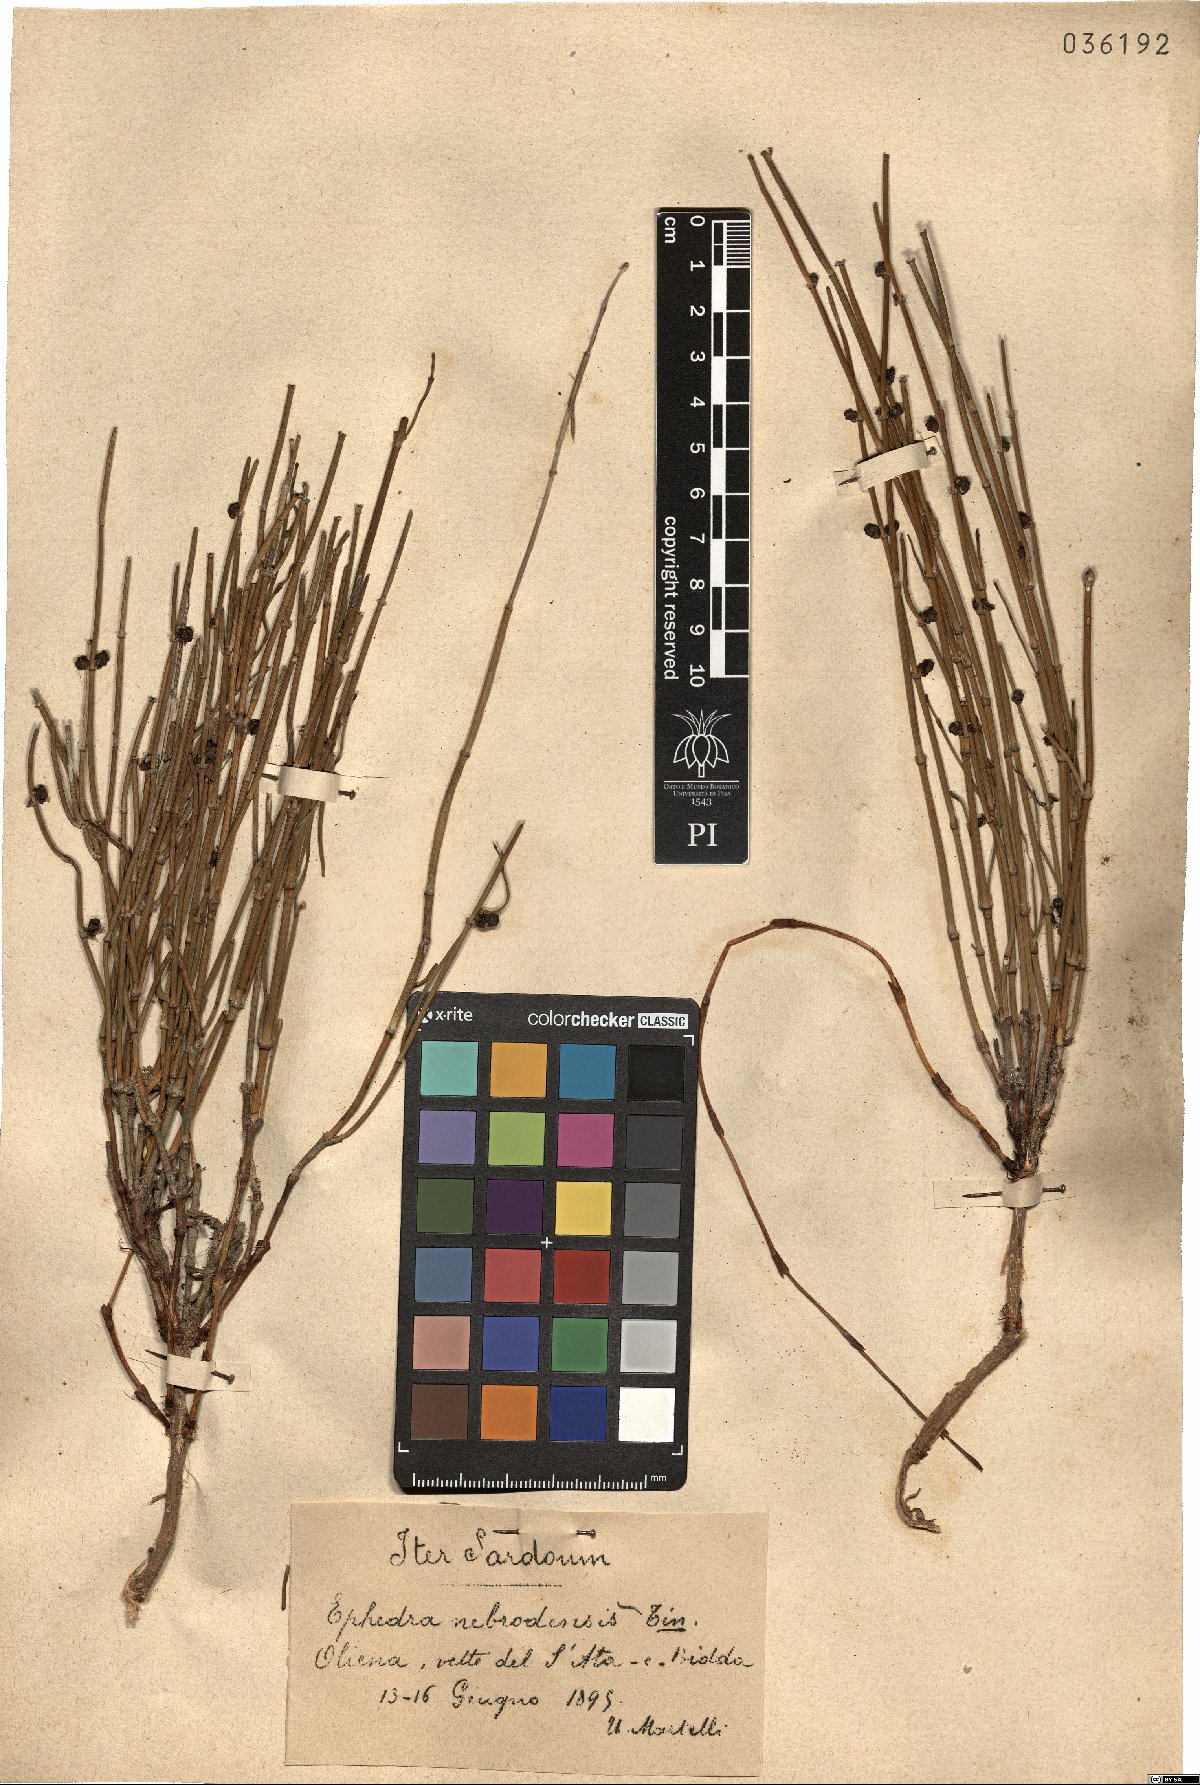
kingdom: Plantae
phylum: Tracheophyta
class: Gnetopsida
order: Ephedrales
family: Ephedraceae
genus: Ephedra
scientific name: Ephedra foeminea
